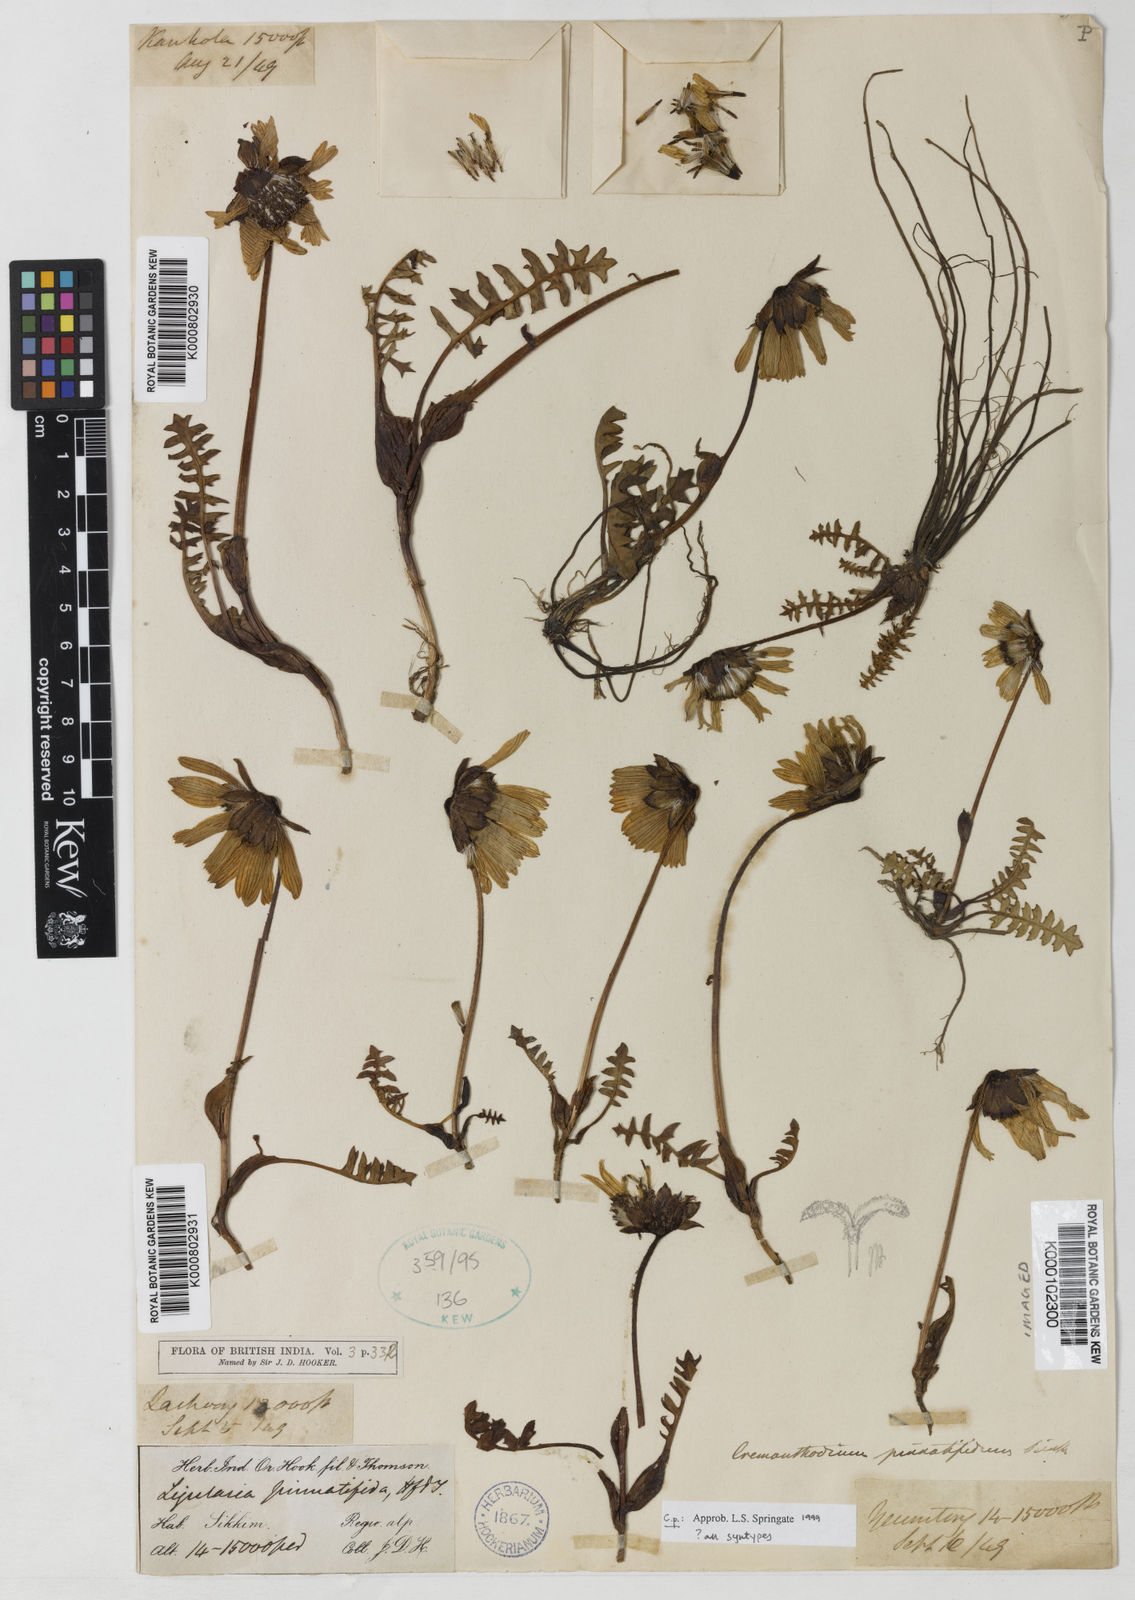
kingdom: Plantae
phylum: Tracheophyta
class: Magnoliopsida
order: Asterales
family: Asteraceae
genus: Cremanthodium
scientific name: Cremanthodium pinnatifidum
